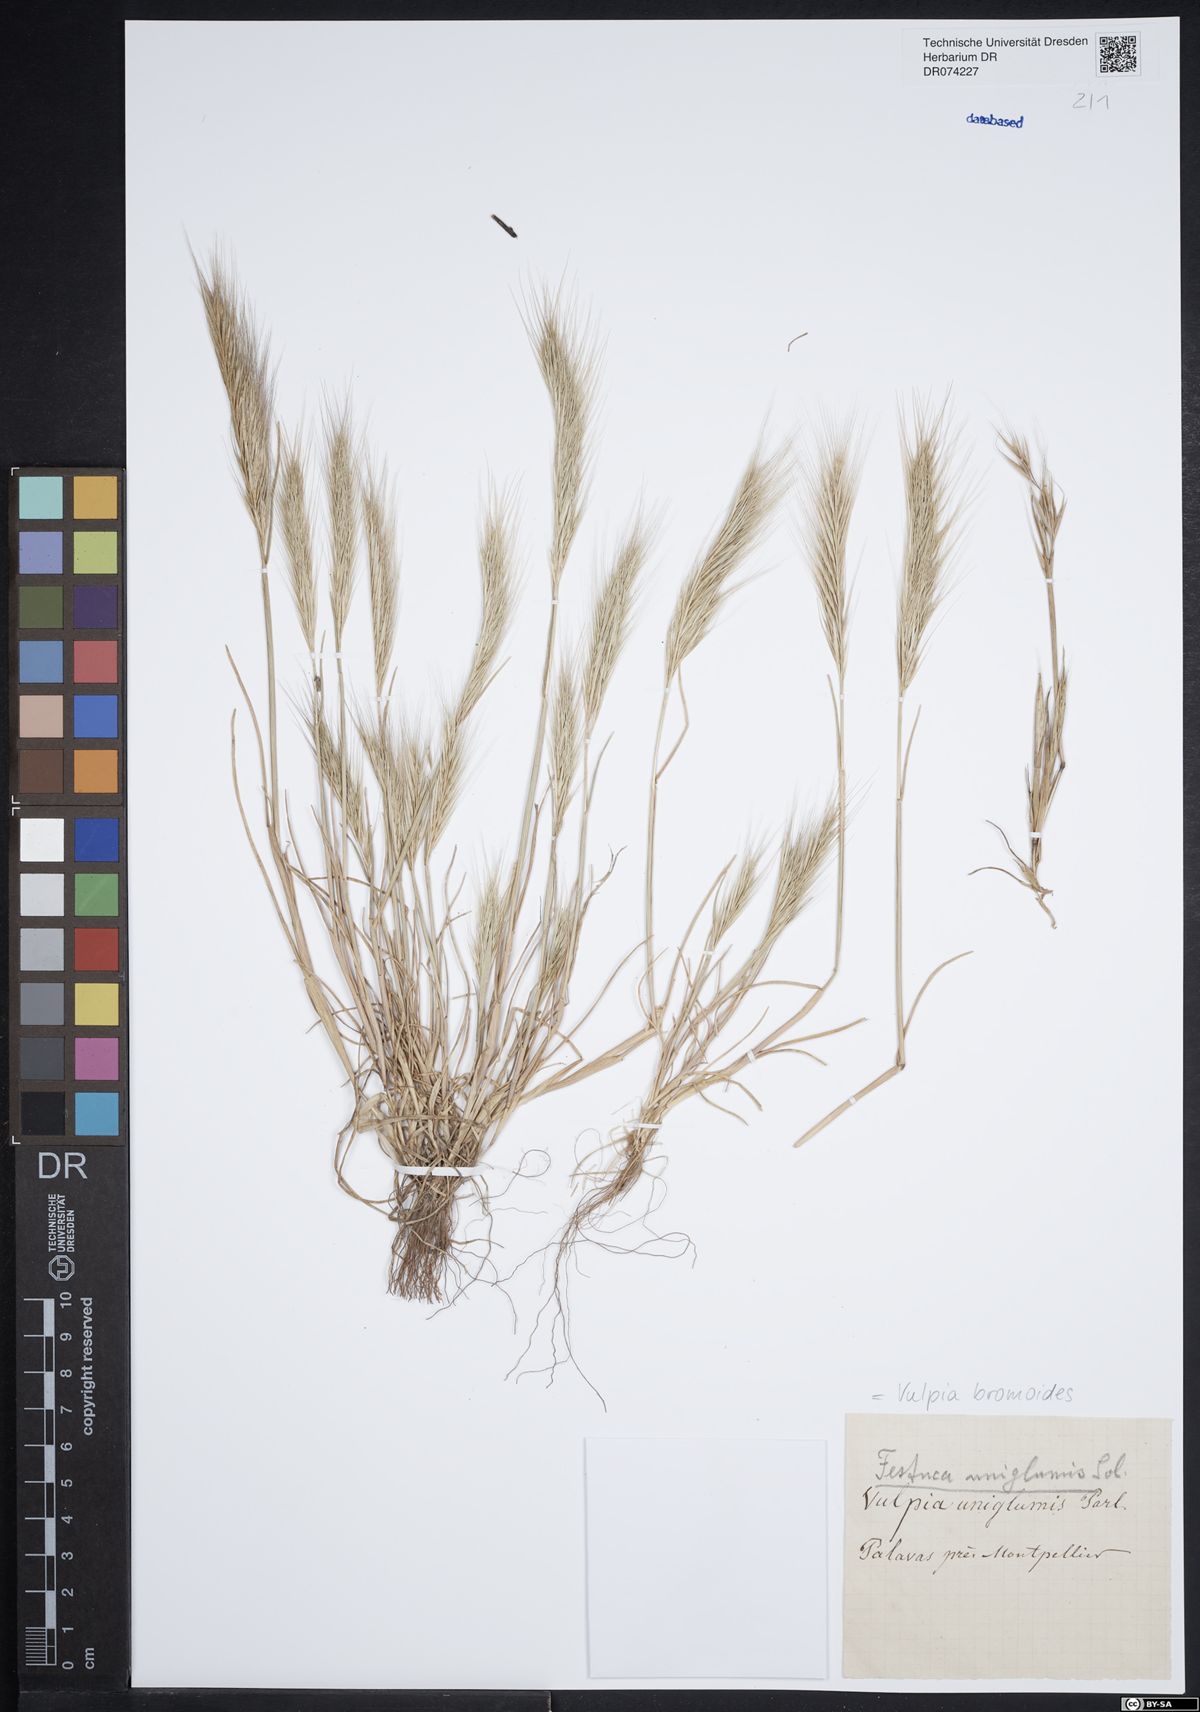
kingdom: Plantae
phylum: Tracheophyta
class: Liliopsida
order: Poales
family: Poaceae
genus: Festuca
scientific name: Festuca bromoides
